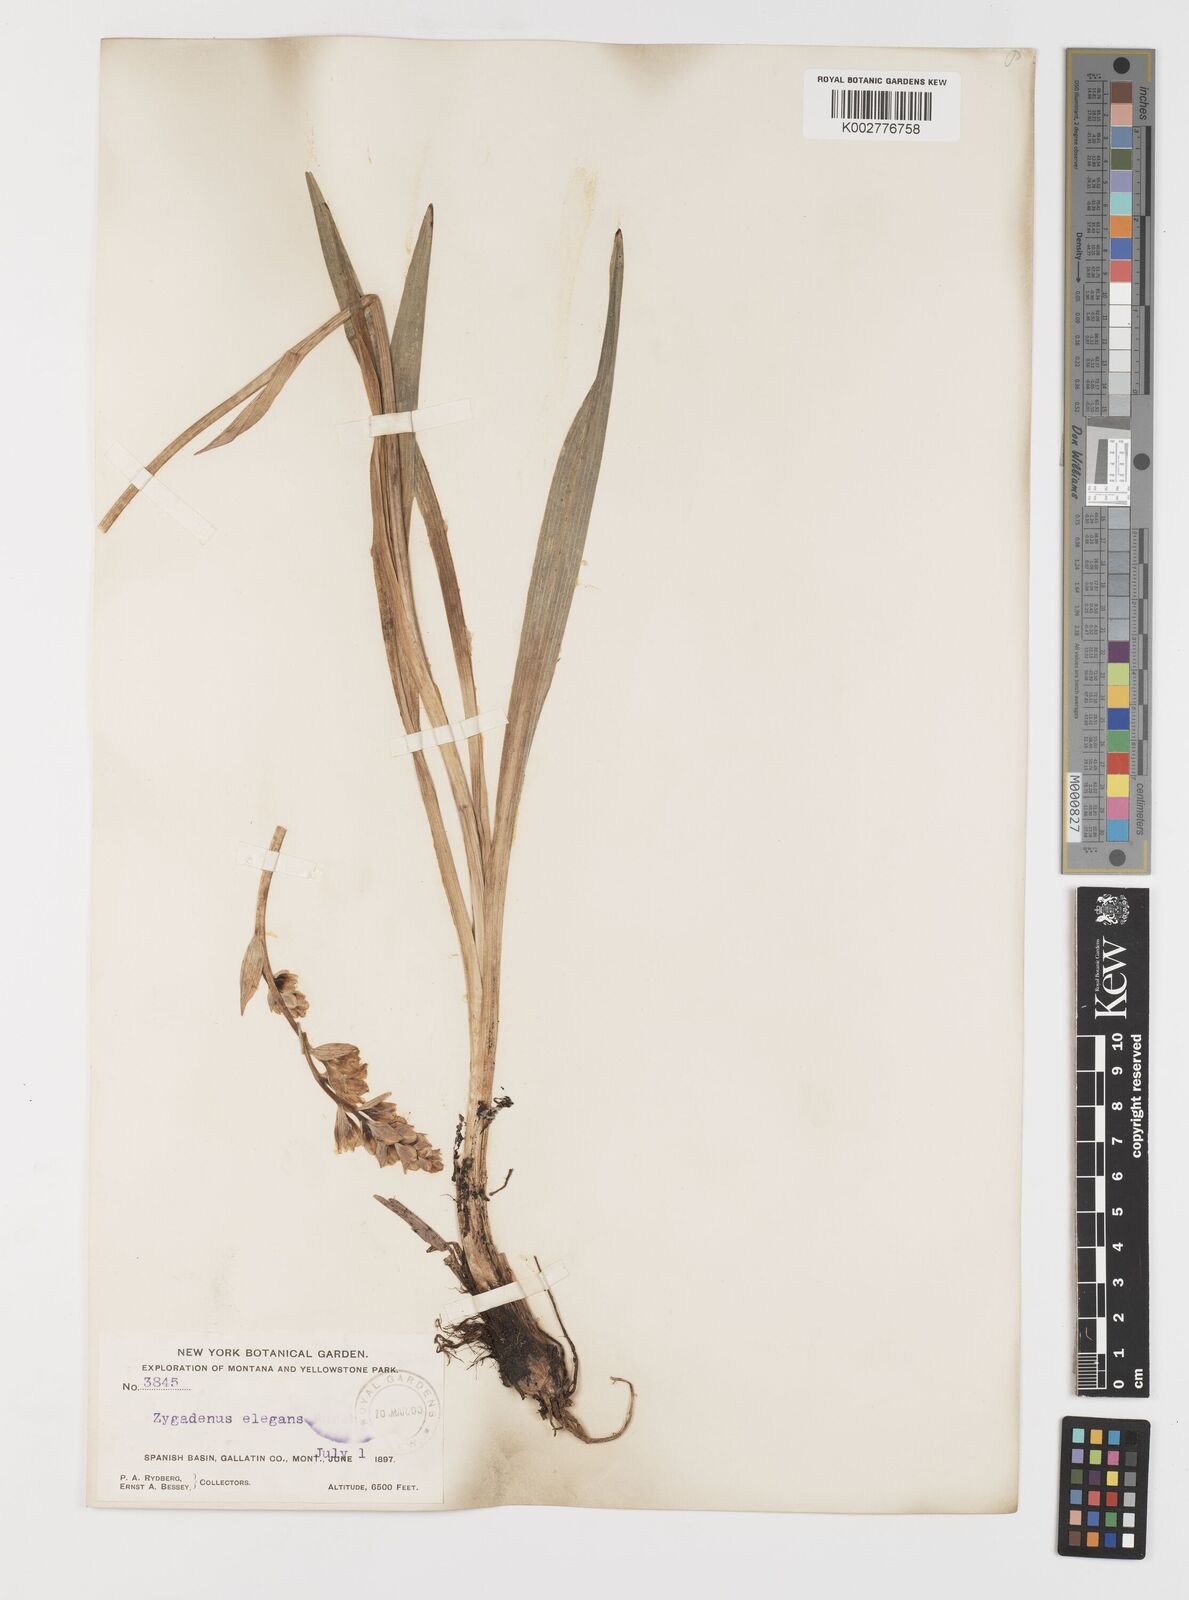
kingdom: Plantae
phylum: Tracheophyta
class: Liliopsida
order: Liliales
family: Melanthiaceae
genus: Anticlea
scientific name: Anticlea elegans
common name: Mountain death camas
